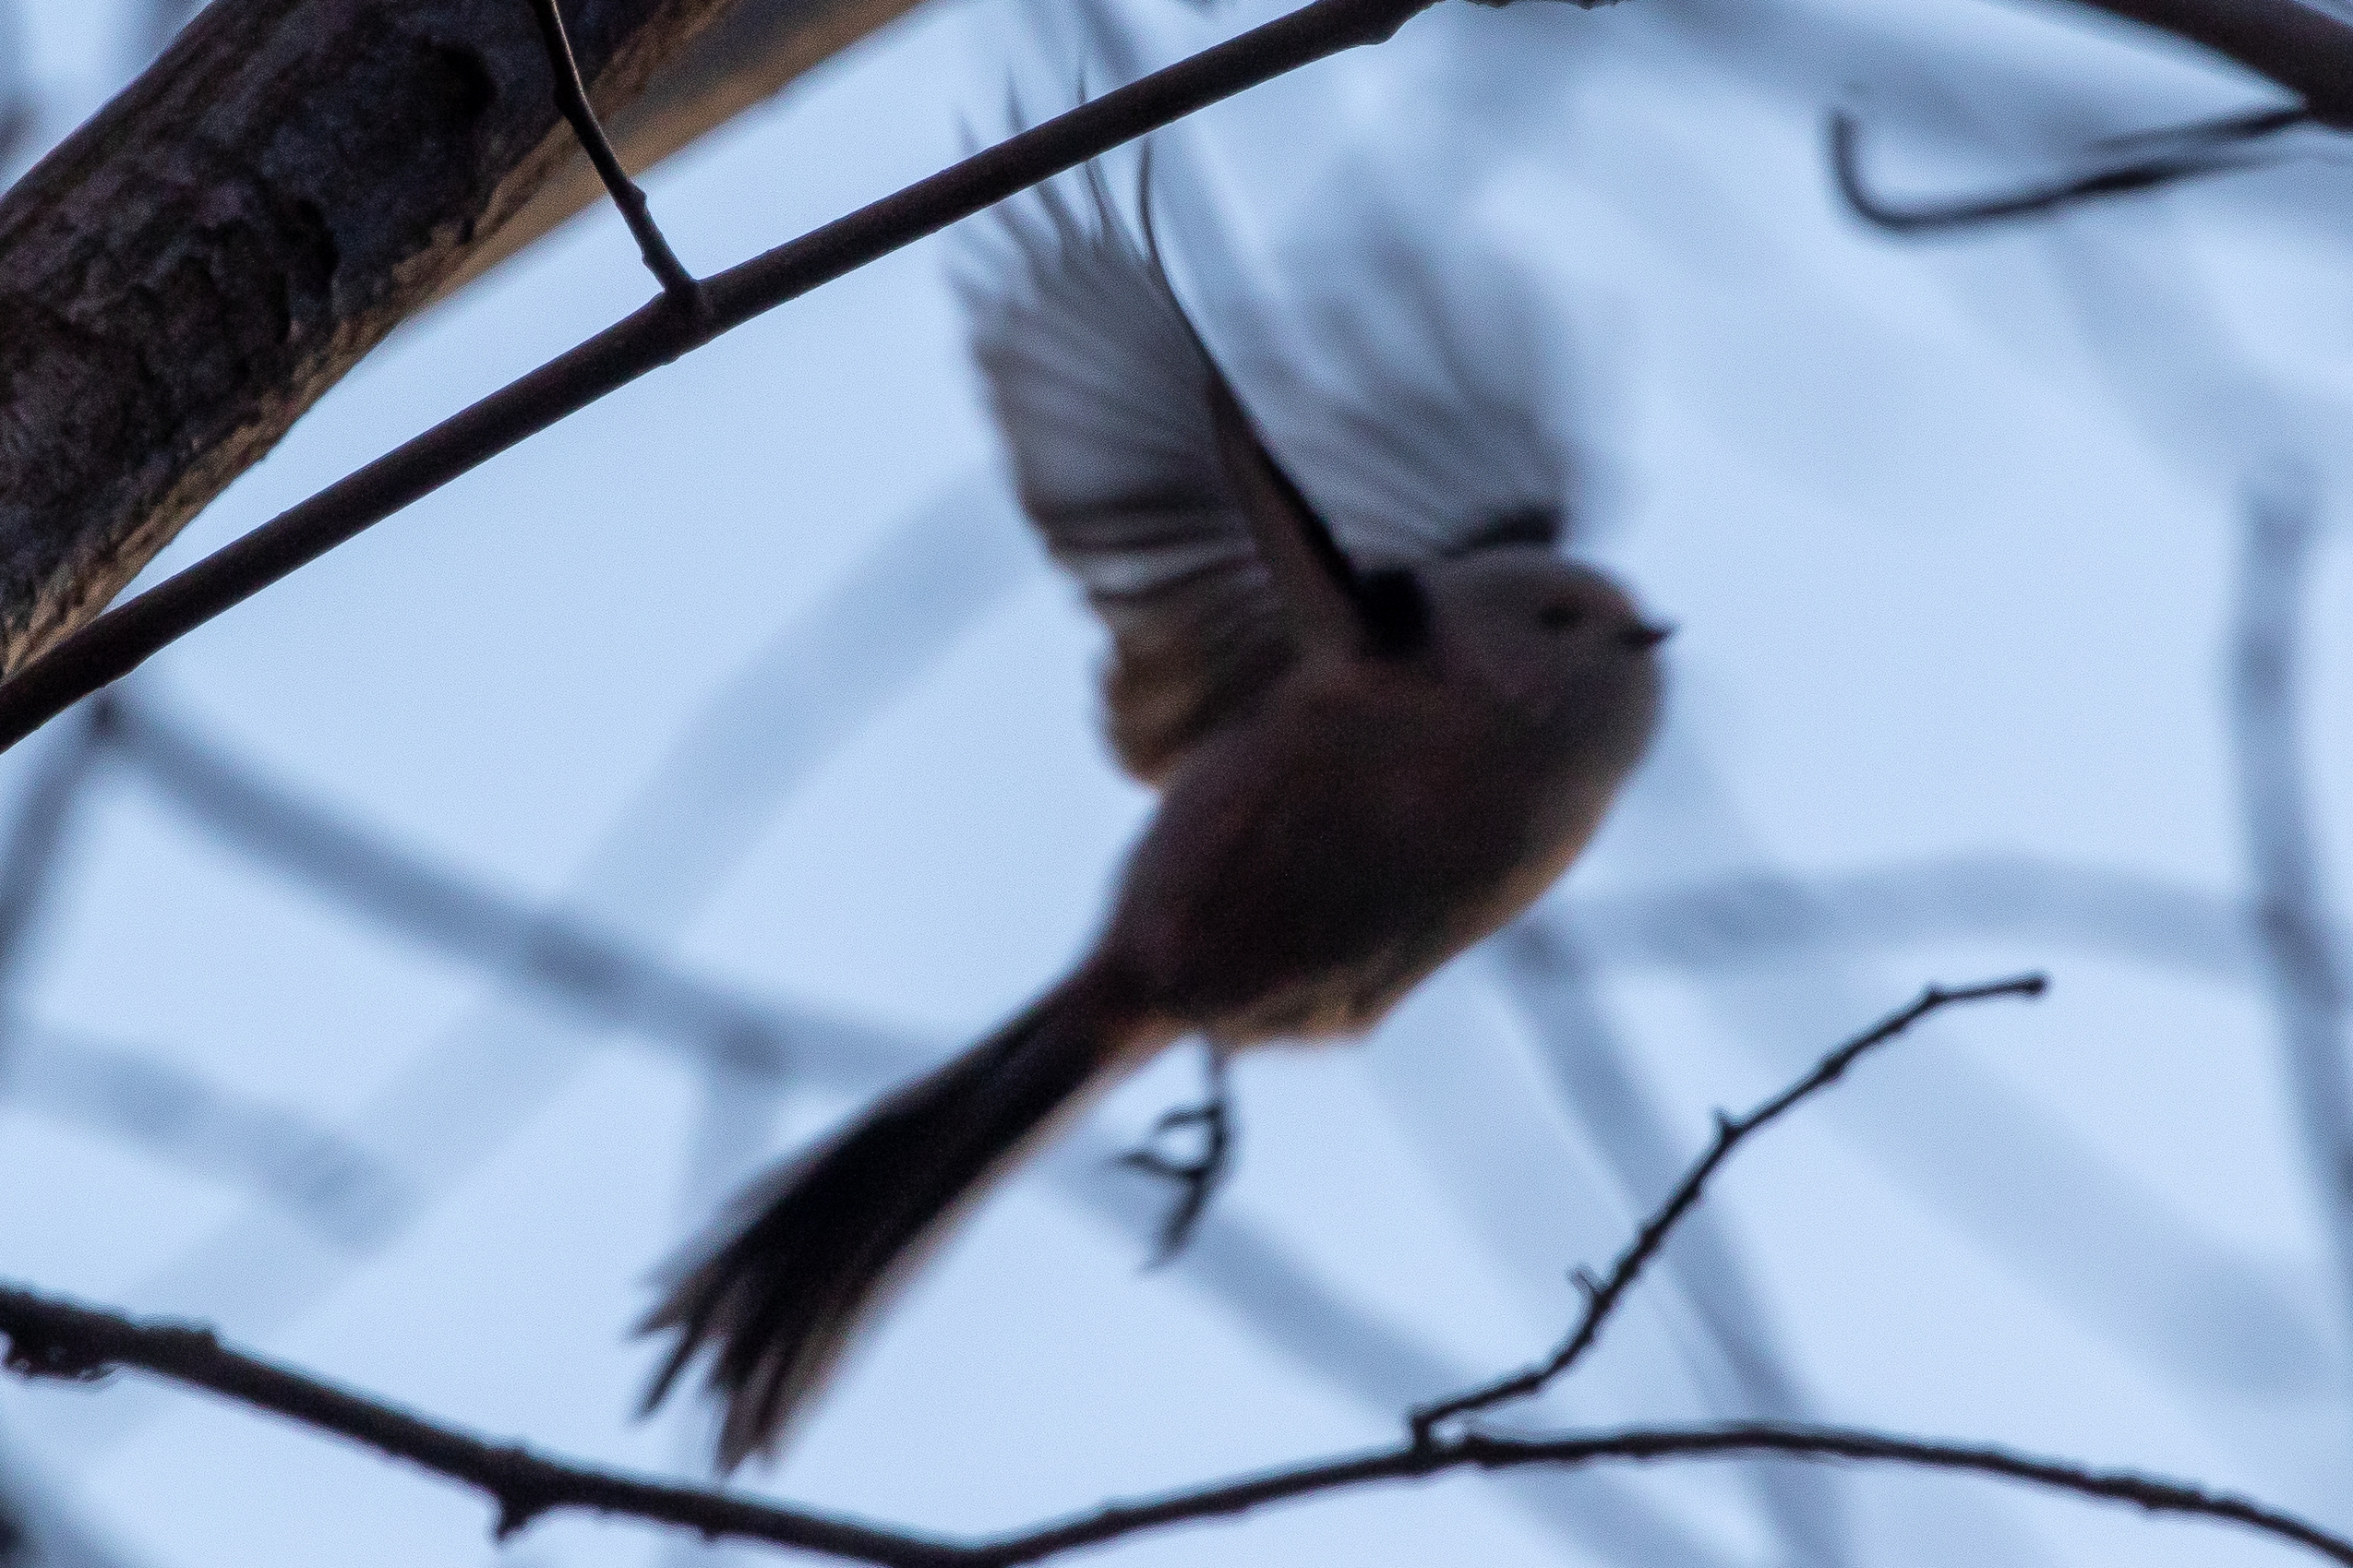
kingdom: Animalia
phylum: Chordata
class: Aves
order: Passeriformes
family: Aegithalidae
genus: Aegithalos
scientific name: Aegithalos caudatus
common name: Halemejse
